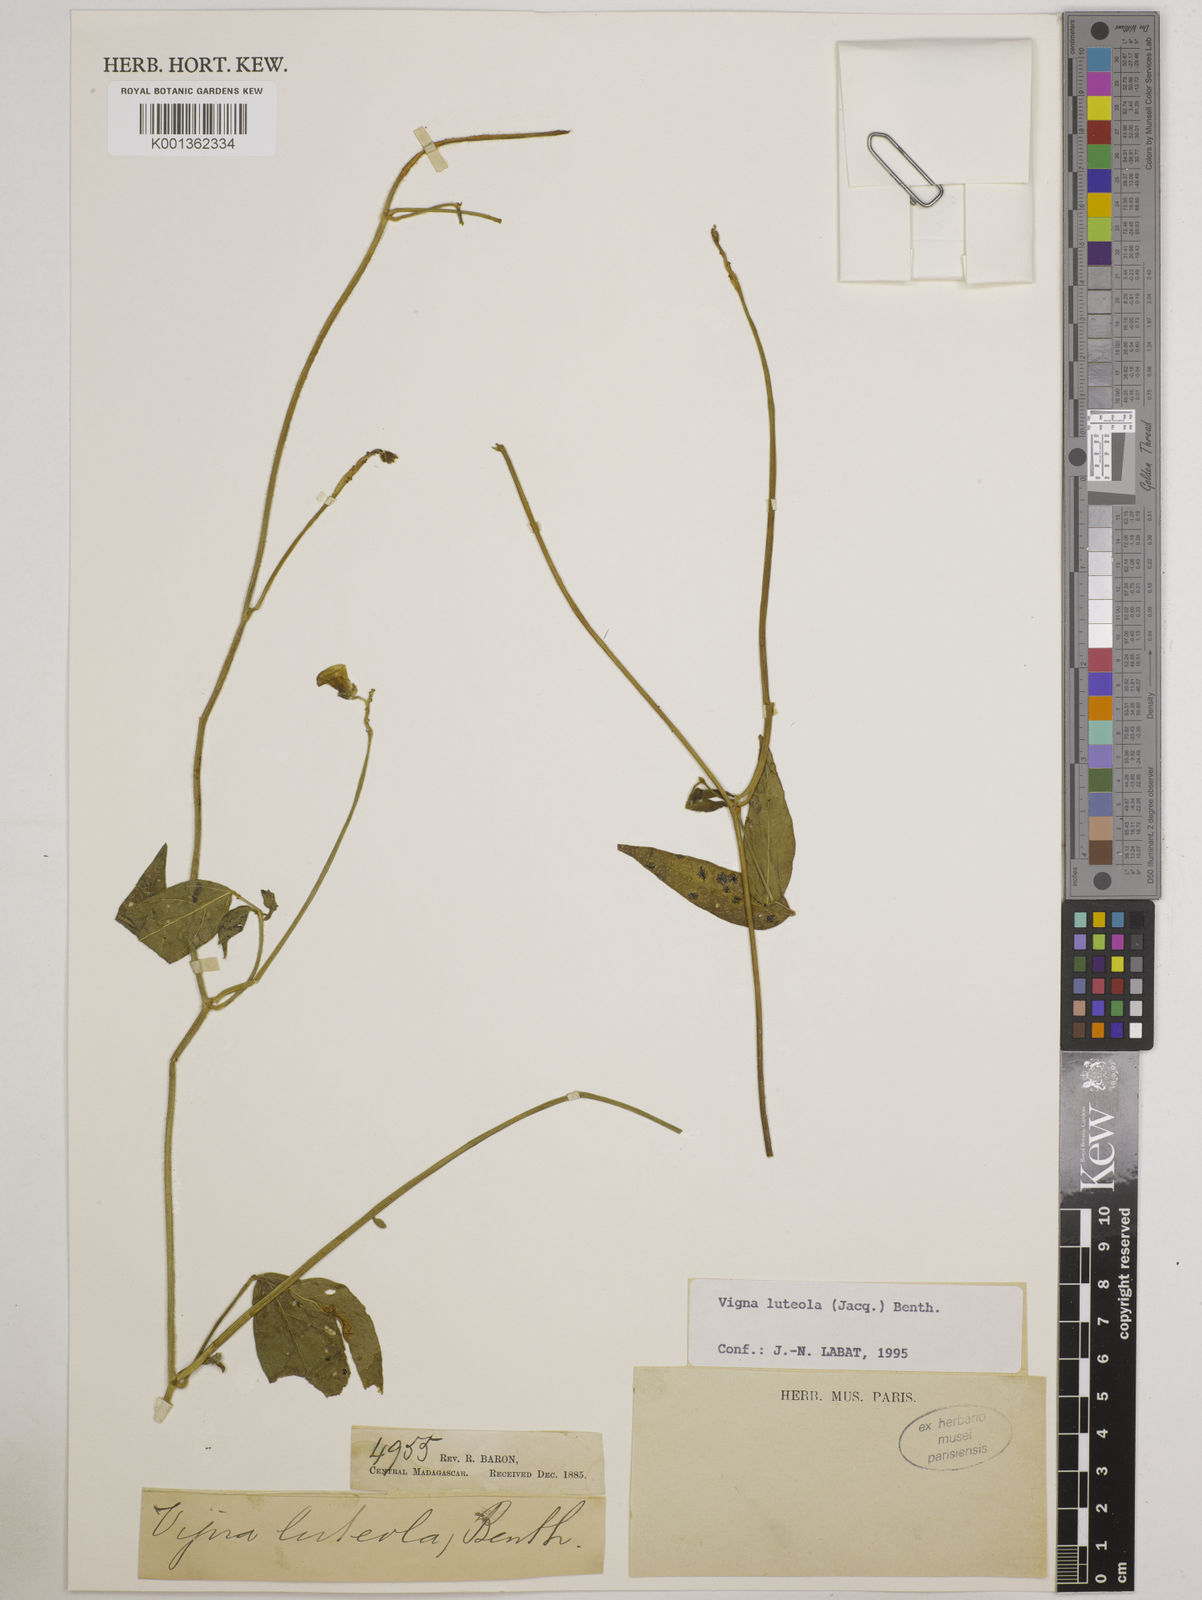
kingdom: Plantae
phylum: Tracheophyta
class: Magnoliopsida
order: Fabales
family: Fabaceae
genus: Vigna
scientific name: Vigna luteola
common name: Hairypod cowpea
